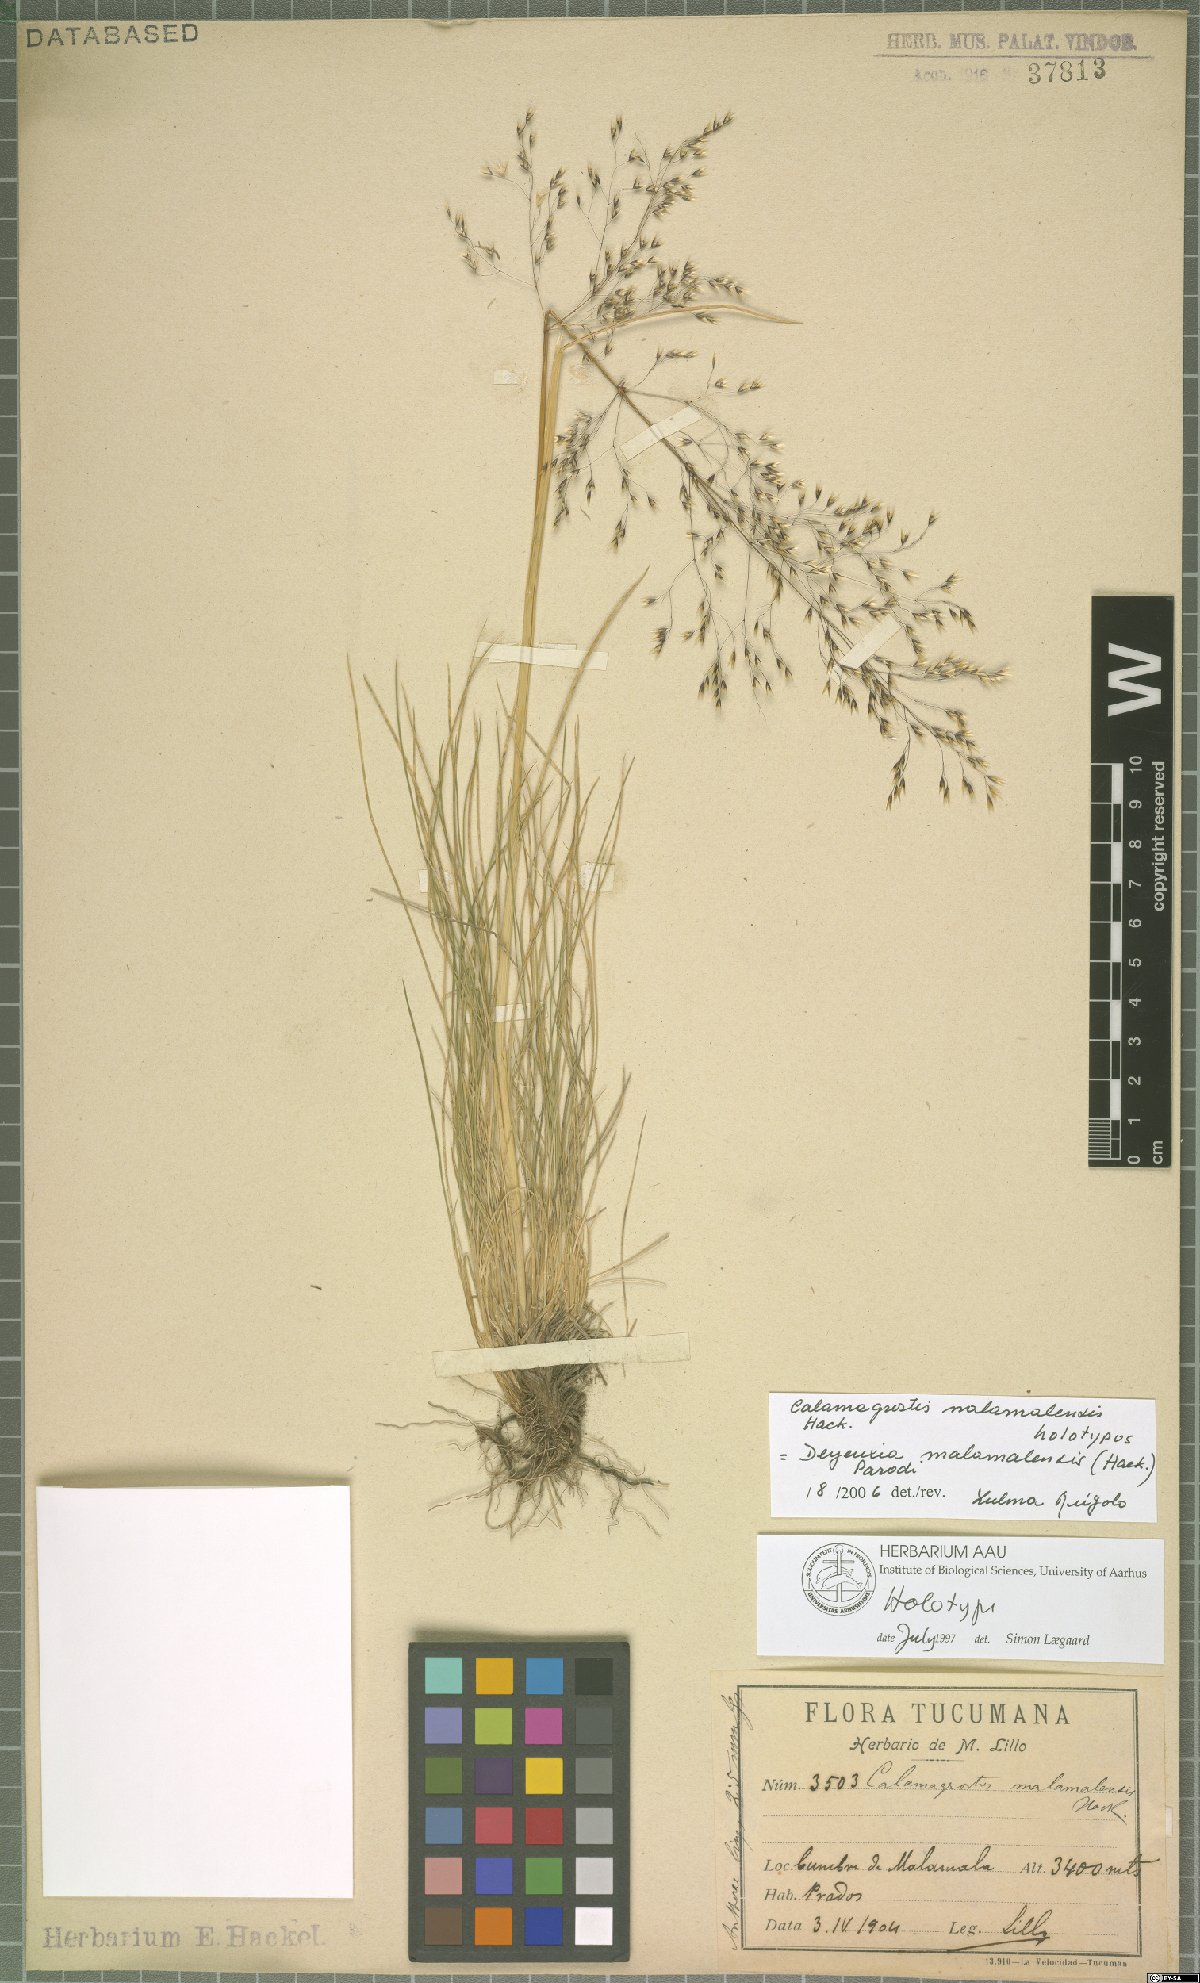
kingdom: Plantae
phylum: Tracheophyta
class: Liliopsida
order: Poales
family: Poaceae
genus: Cinnagrostis
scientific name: Cinnagrostis malamalensis
